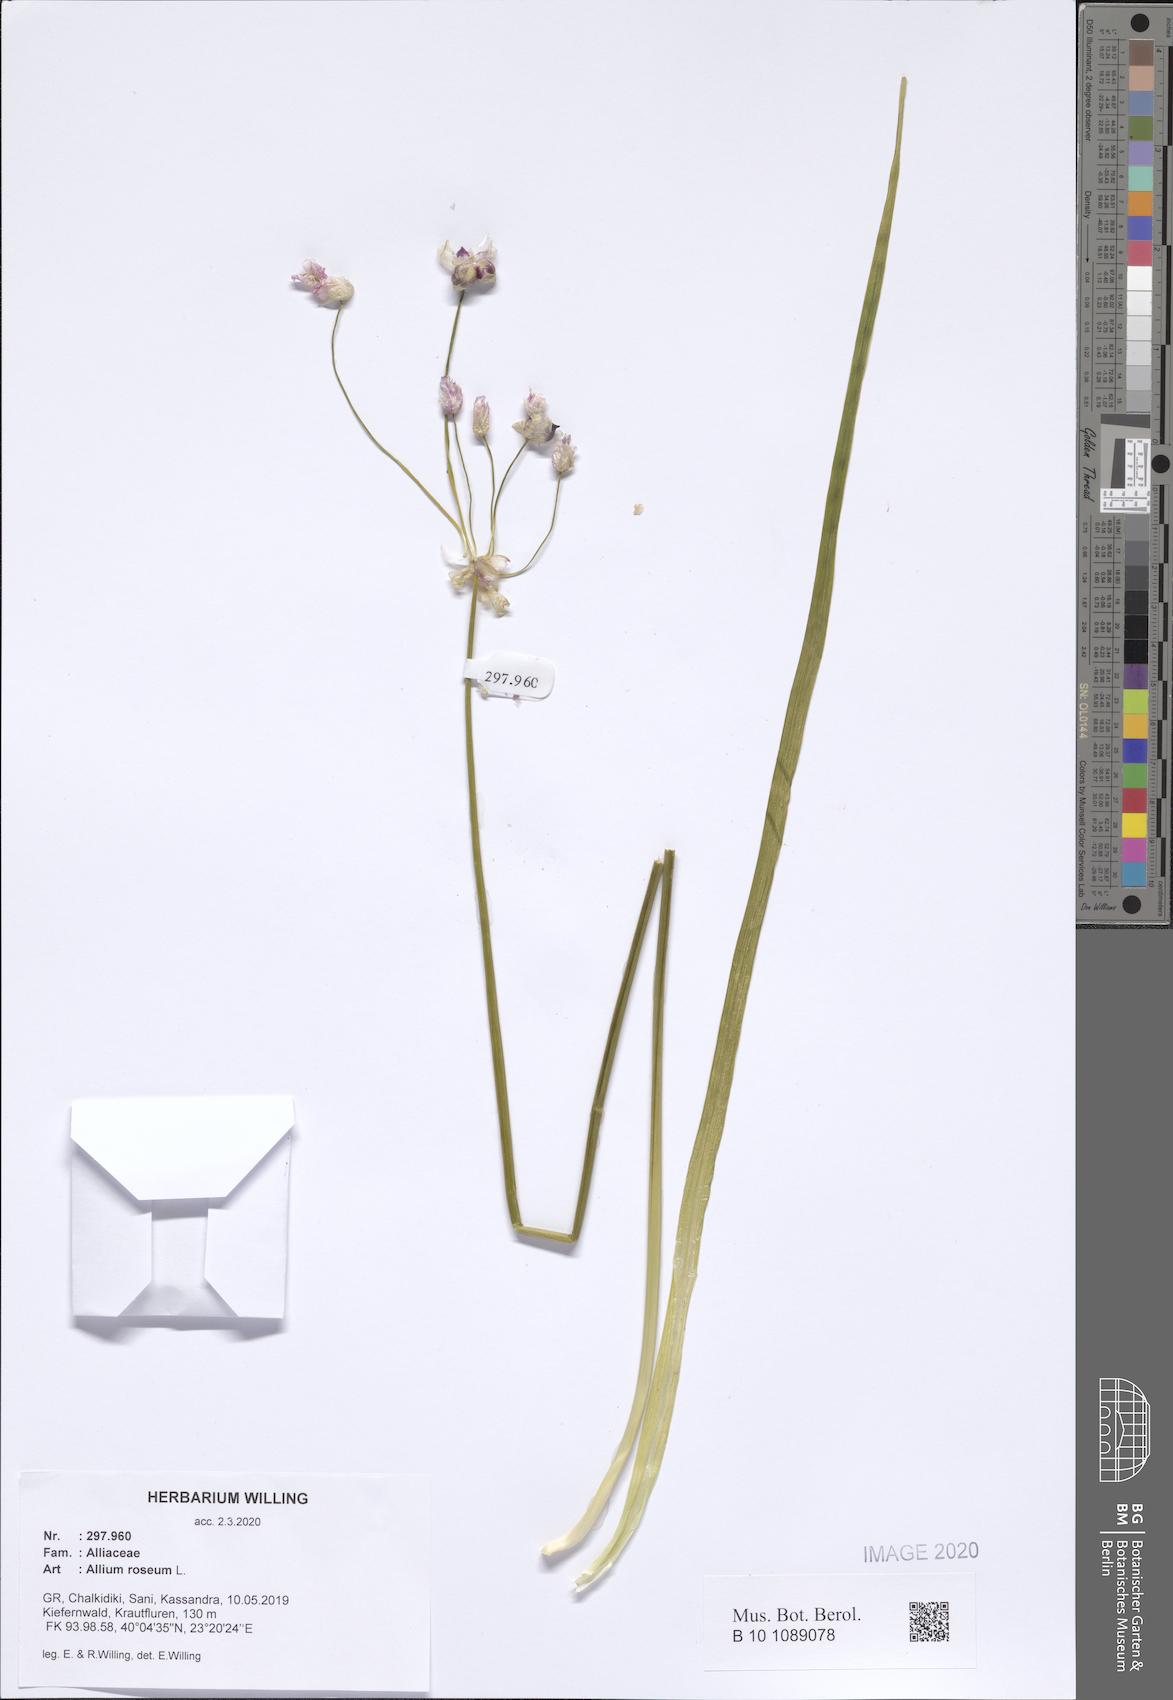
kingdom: Plantae
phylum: Tracheophyta
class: Liliopsida
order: Asparagales
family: Amaryllidaceae
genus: Allium
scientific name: Allium roseum
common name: Rosy garlic
